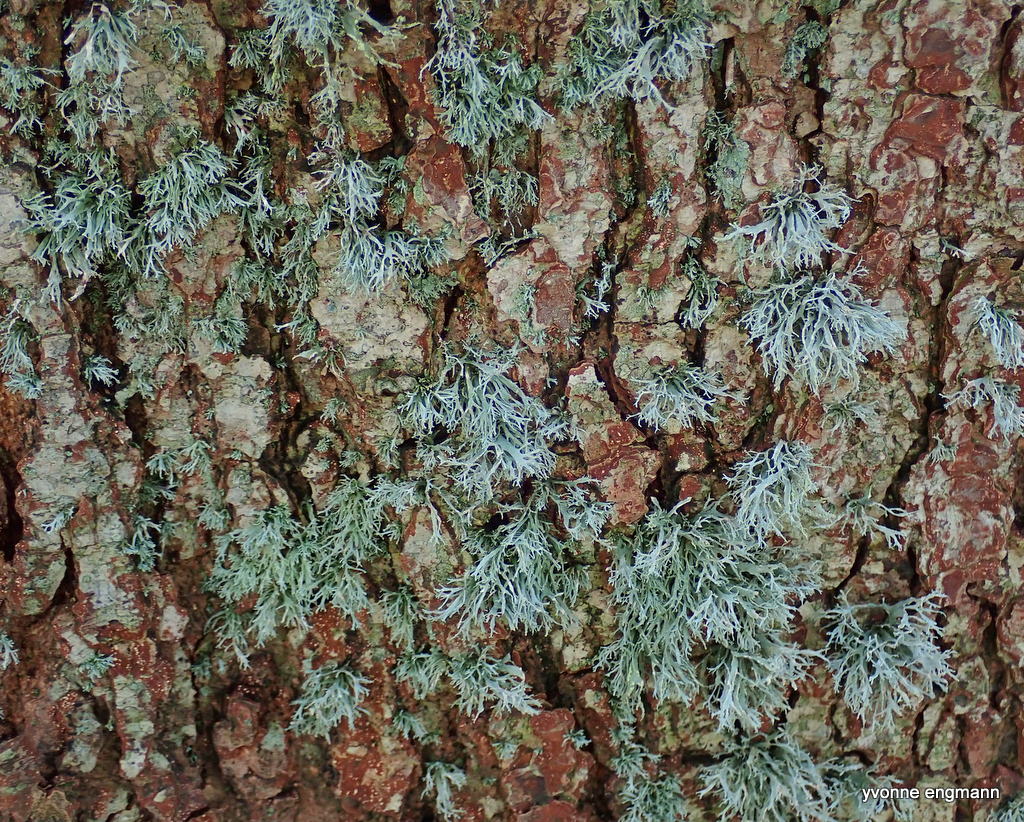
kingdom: Fungi
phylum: Ascomycota
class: Lecanoromycetes
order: Lecanorales
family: Parmeliaceae
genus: Evernia
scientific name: Evernia prunastri
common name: almindelig slåenlav
